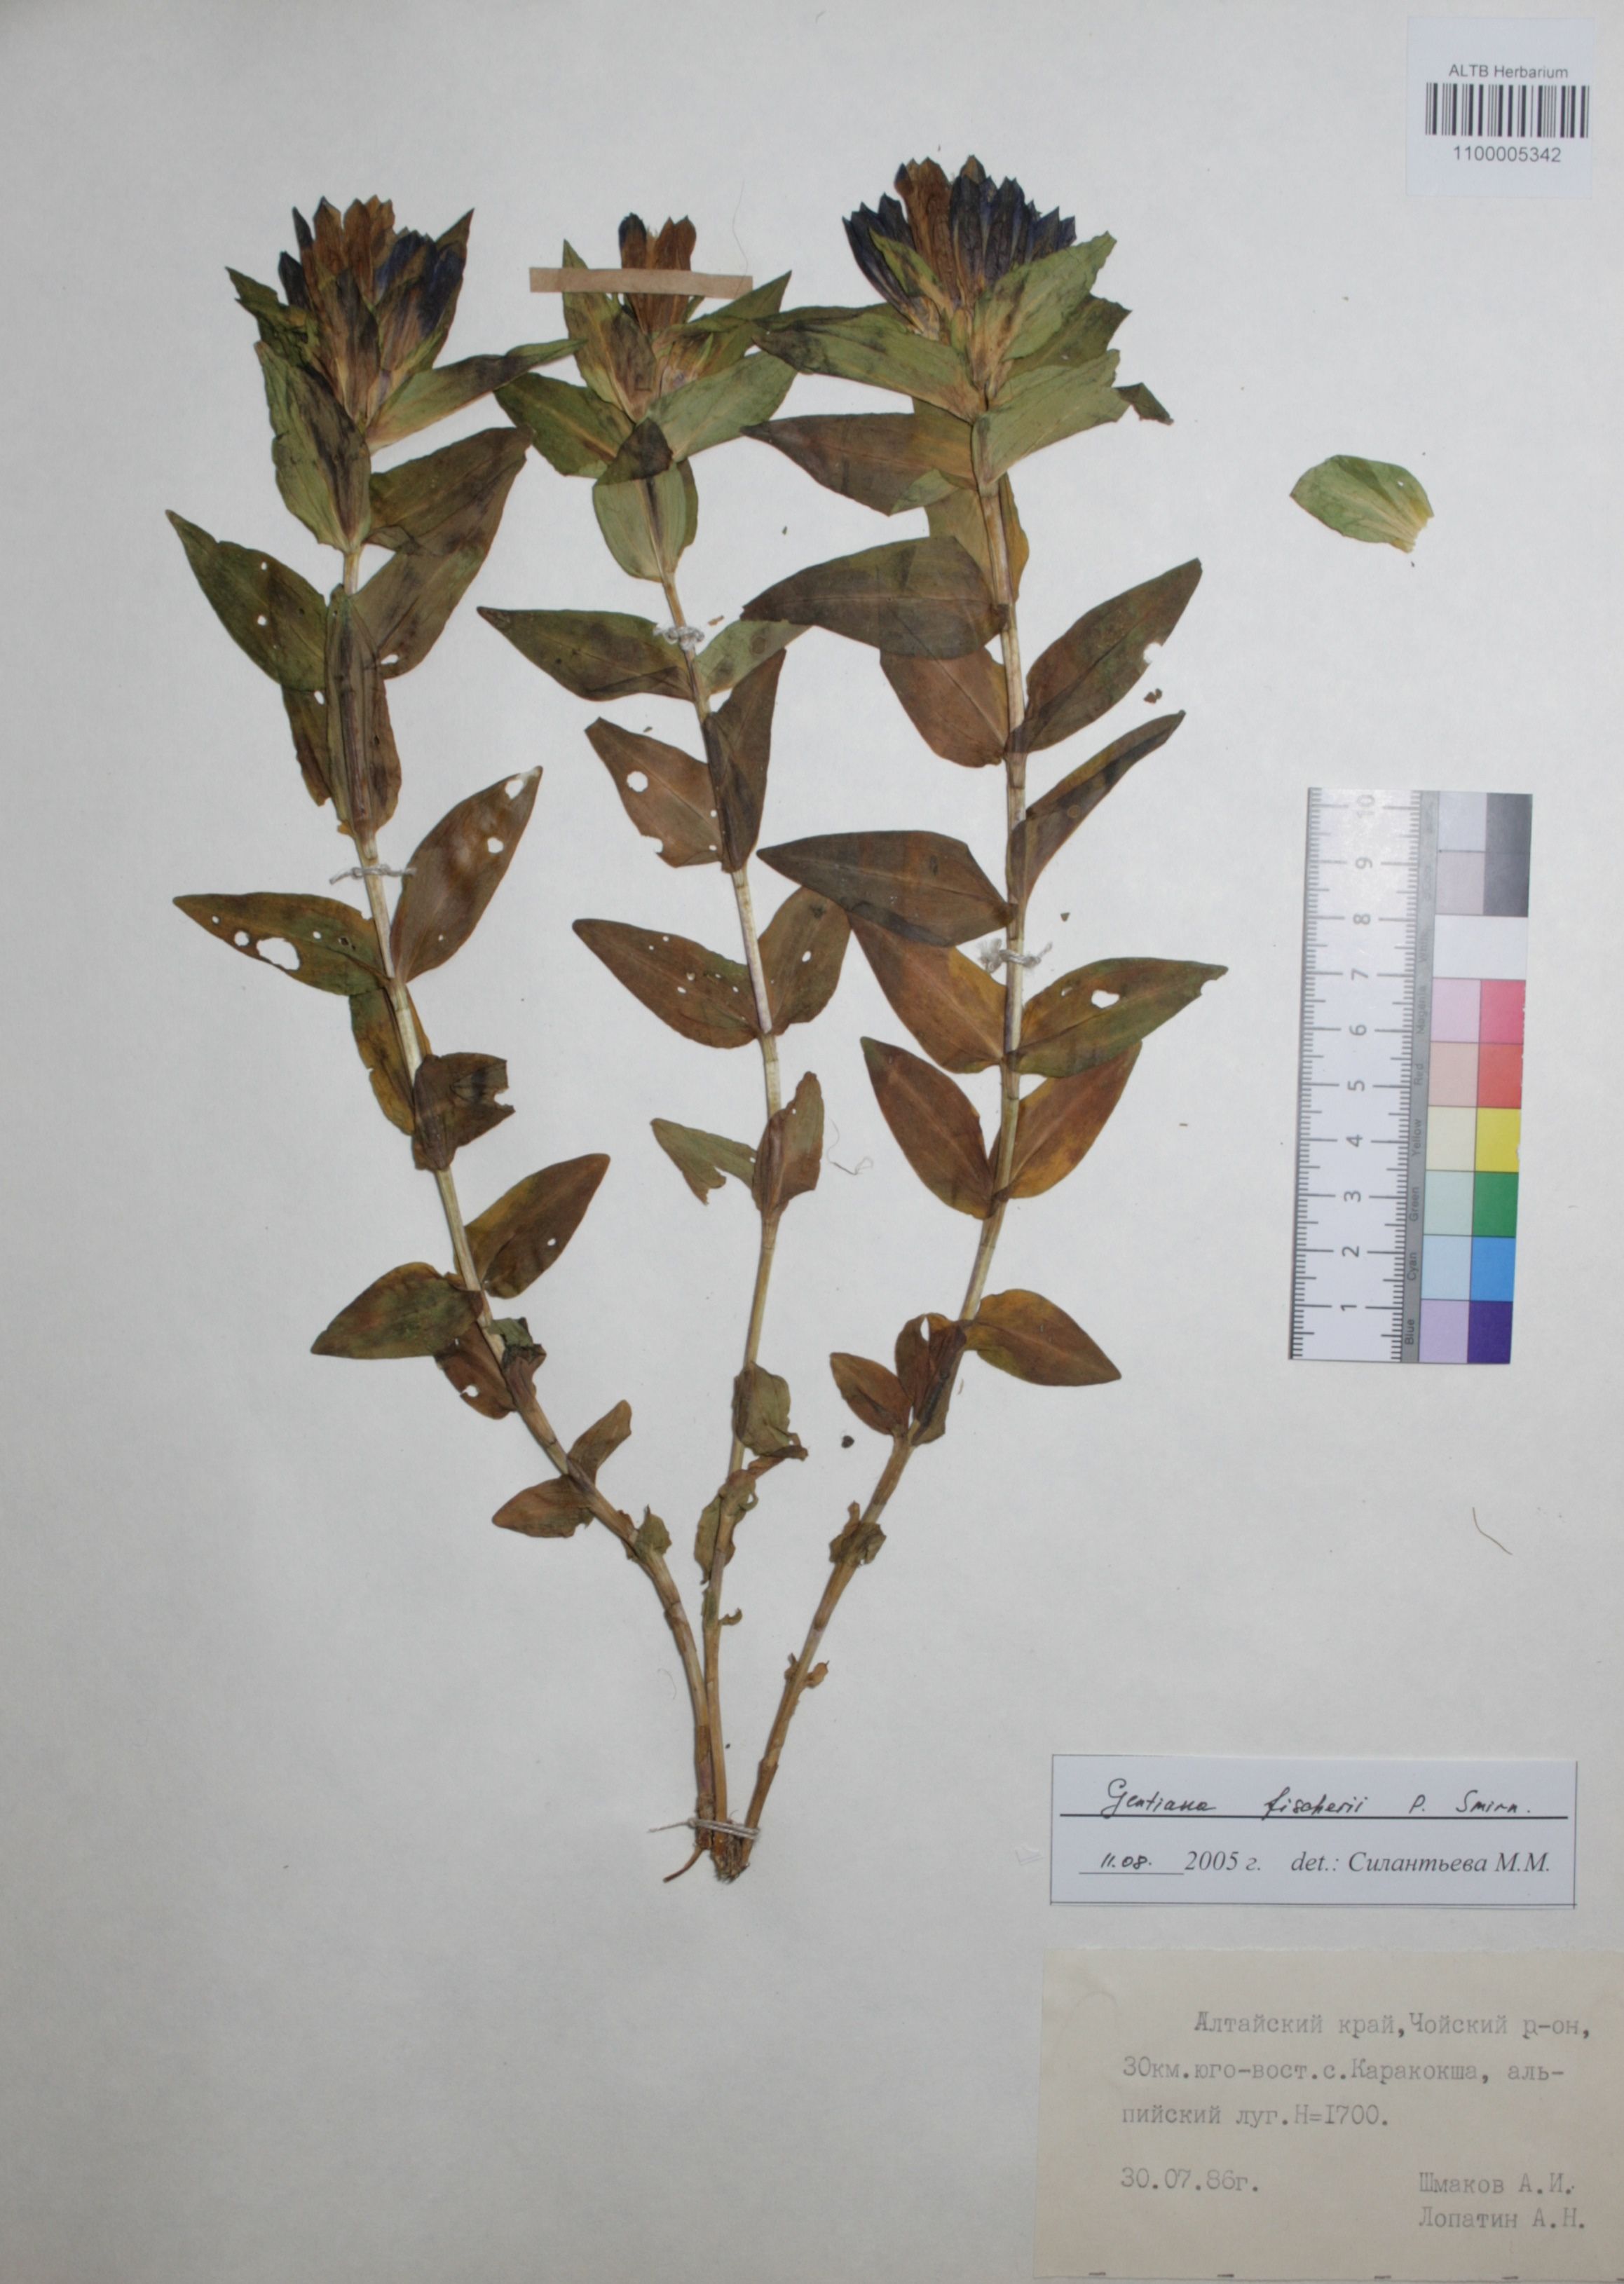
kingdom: Plantae
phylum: Tracheophyta
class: Magnoliopsida
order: Gentianales
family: Gentianaceae
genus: Gentiana
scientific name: Gentiana dschungarica
